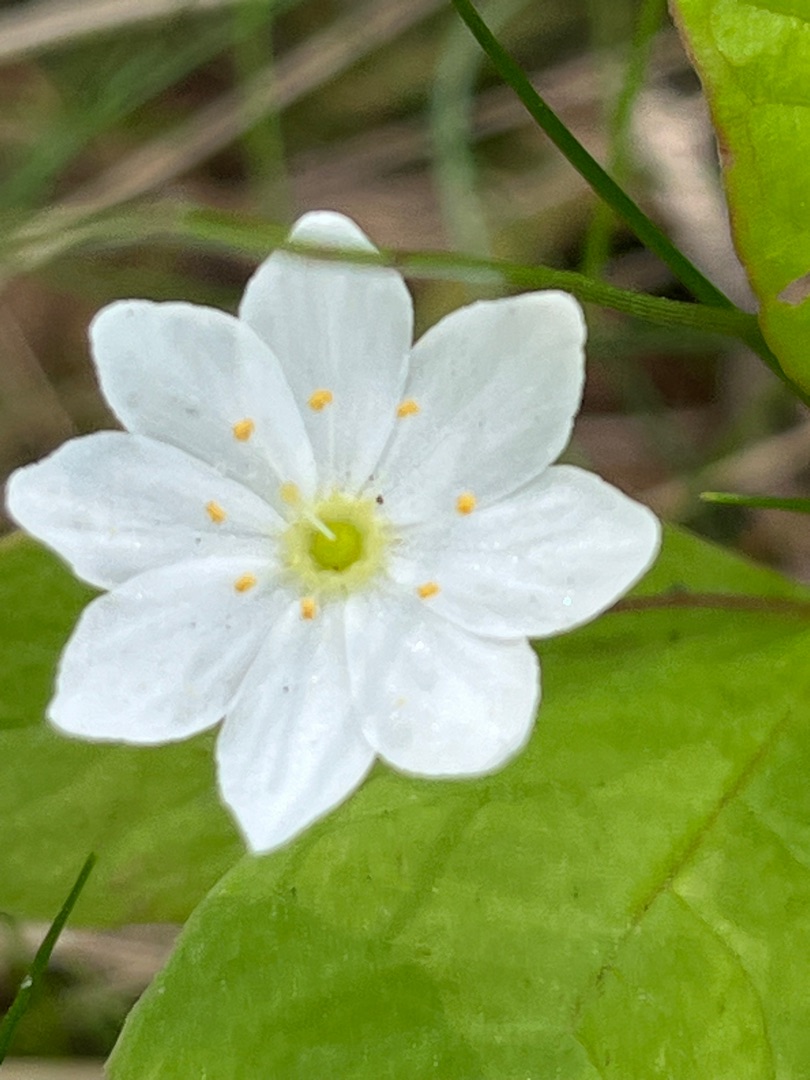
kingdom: Plantae
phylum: Tracheophyta
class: Magnoliopsida
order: Ericales
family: Primulaceae
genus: Lysimachia
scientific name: Lysimachia europaea
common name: Skovstjerne
